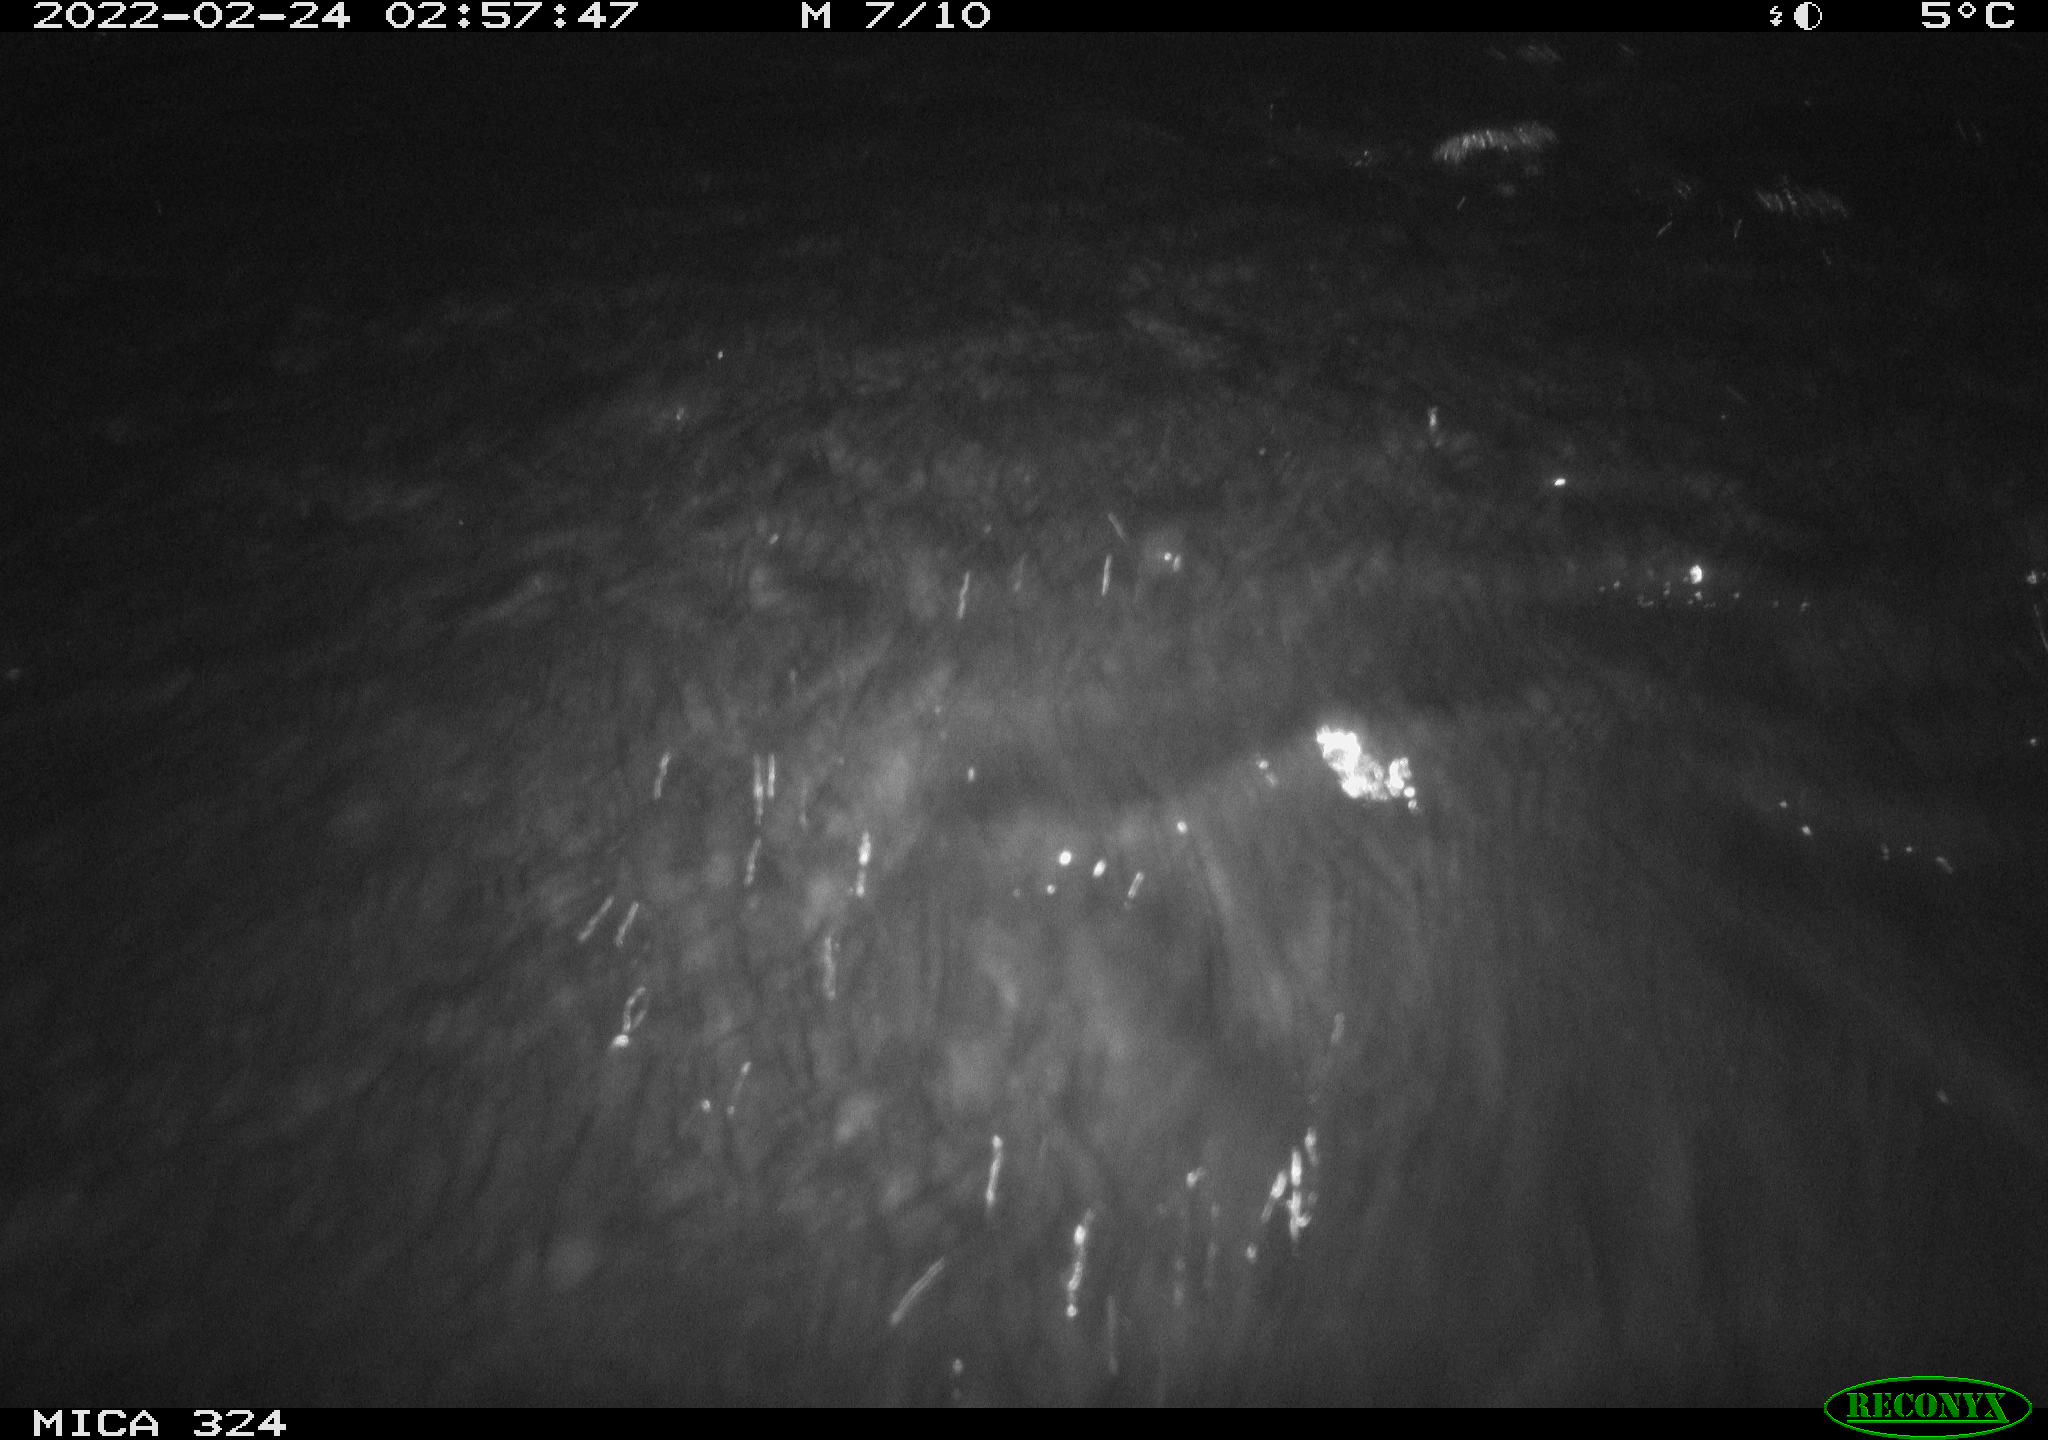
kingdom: Animalia
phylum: Chordata
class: Mammalia
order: Rodentia
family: Cricetidae
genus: Ondatra
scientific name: Ondatra zibethicus
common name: Muskrat
